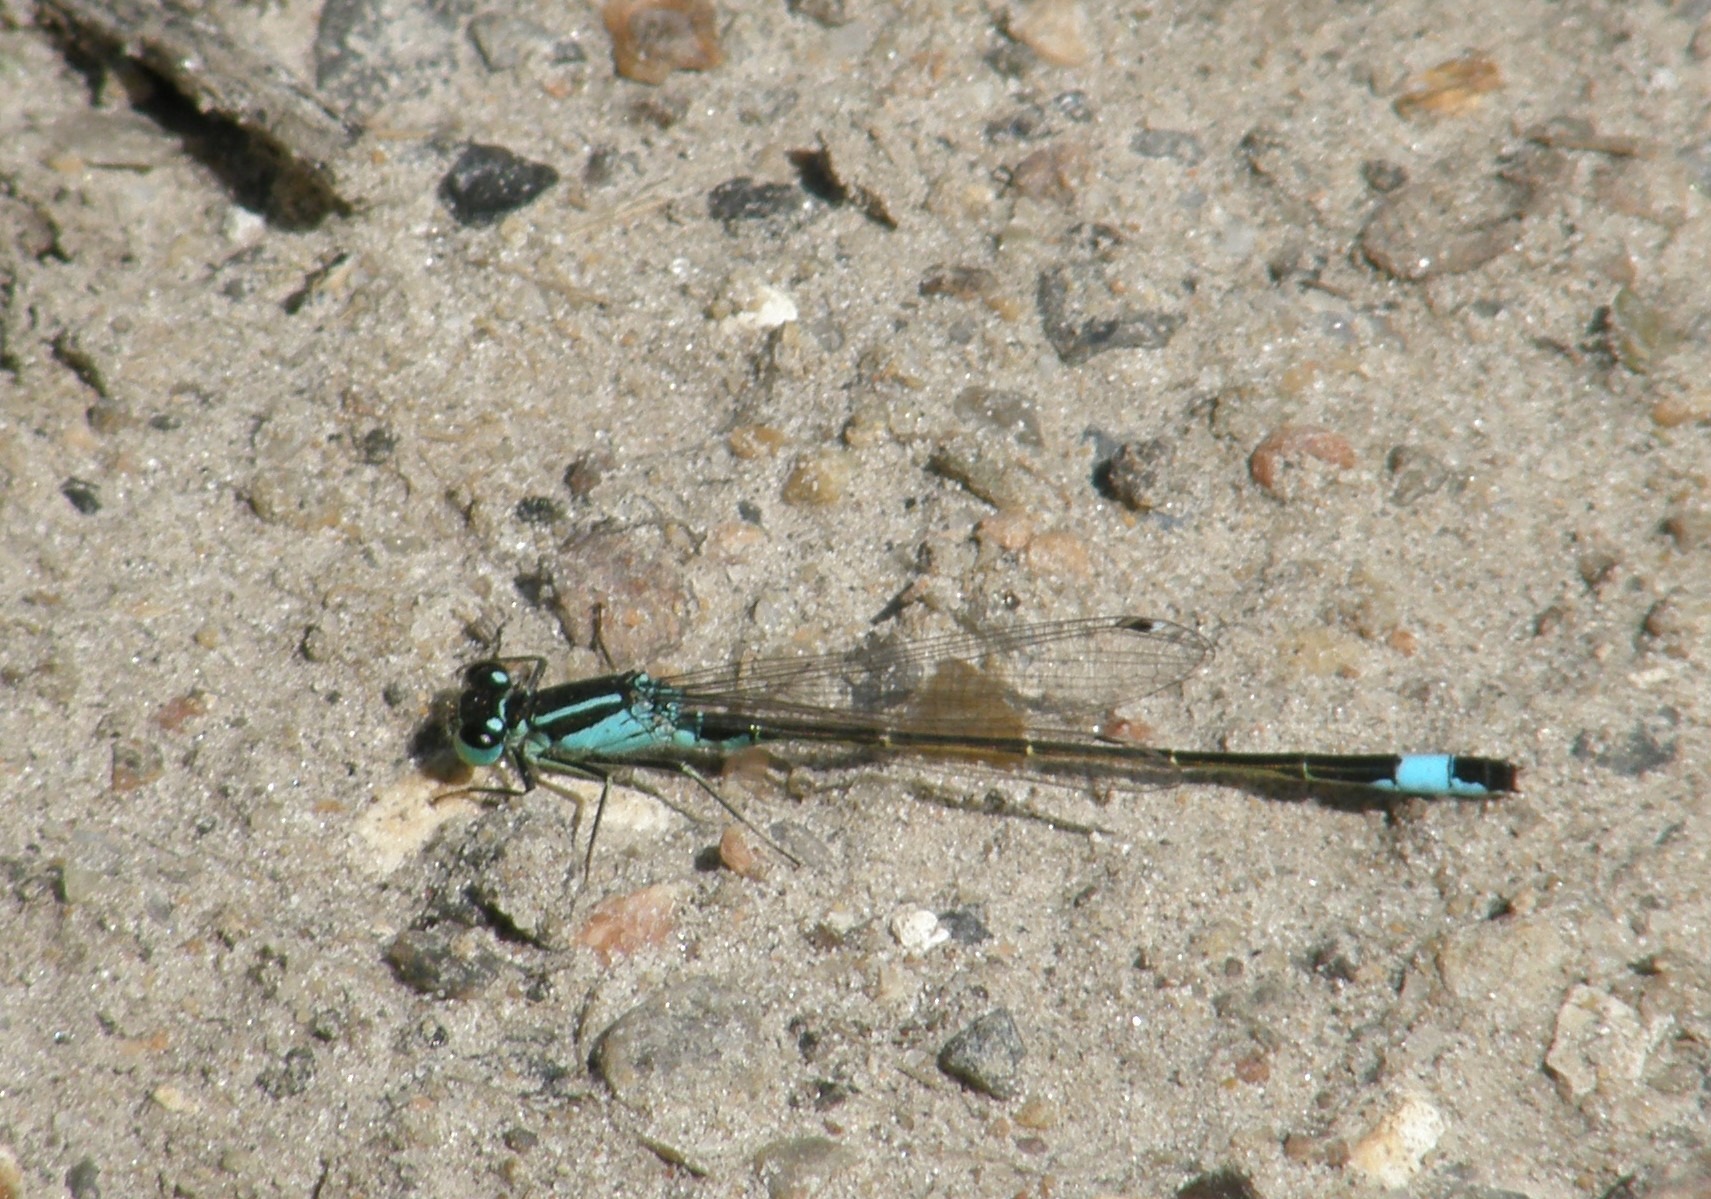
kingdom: Animalia
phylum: Arthropoda
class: Insecta
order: Odonata
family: Coenagrionidae
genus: Ischnura
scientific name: Ischnura elegans
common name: Stor farvevandnymfe
